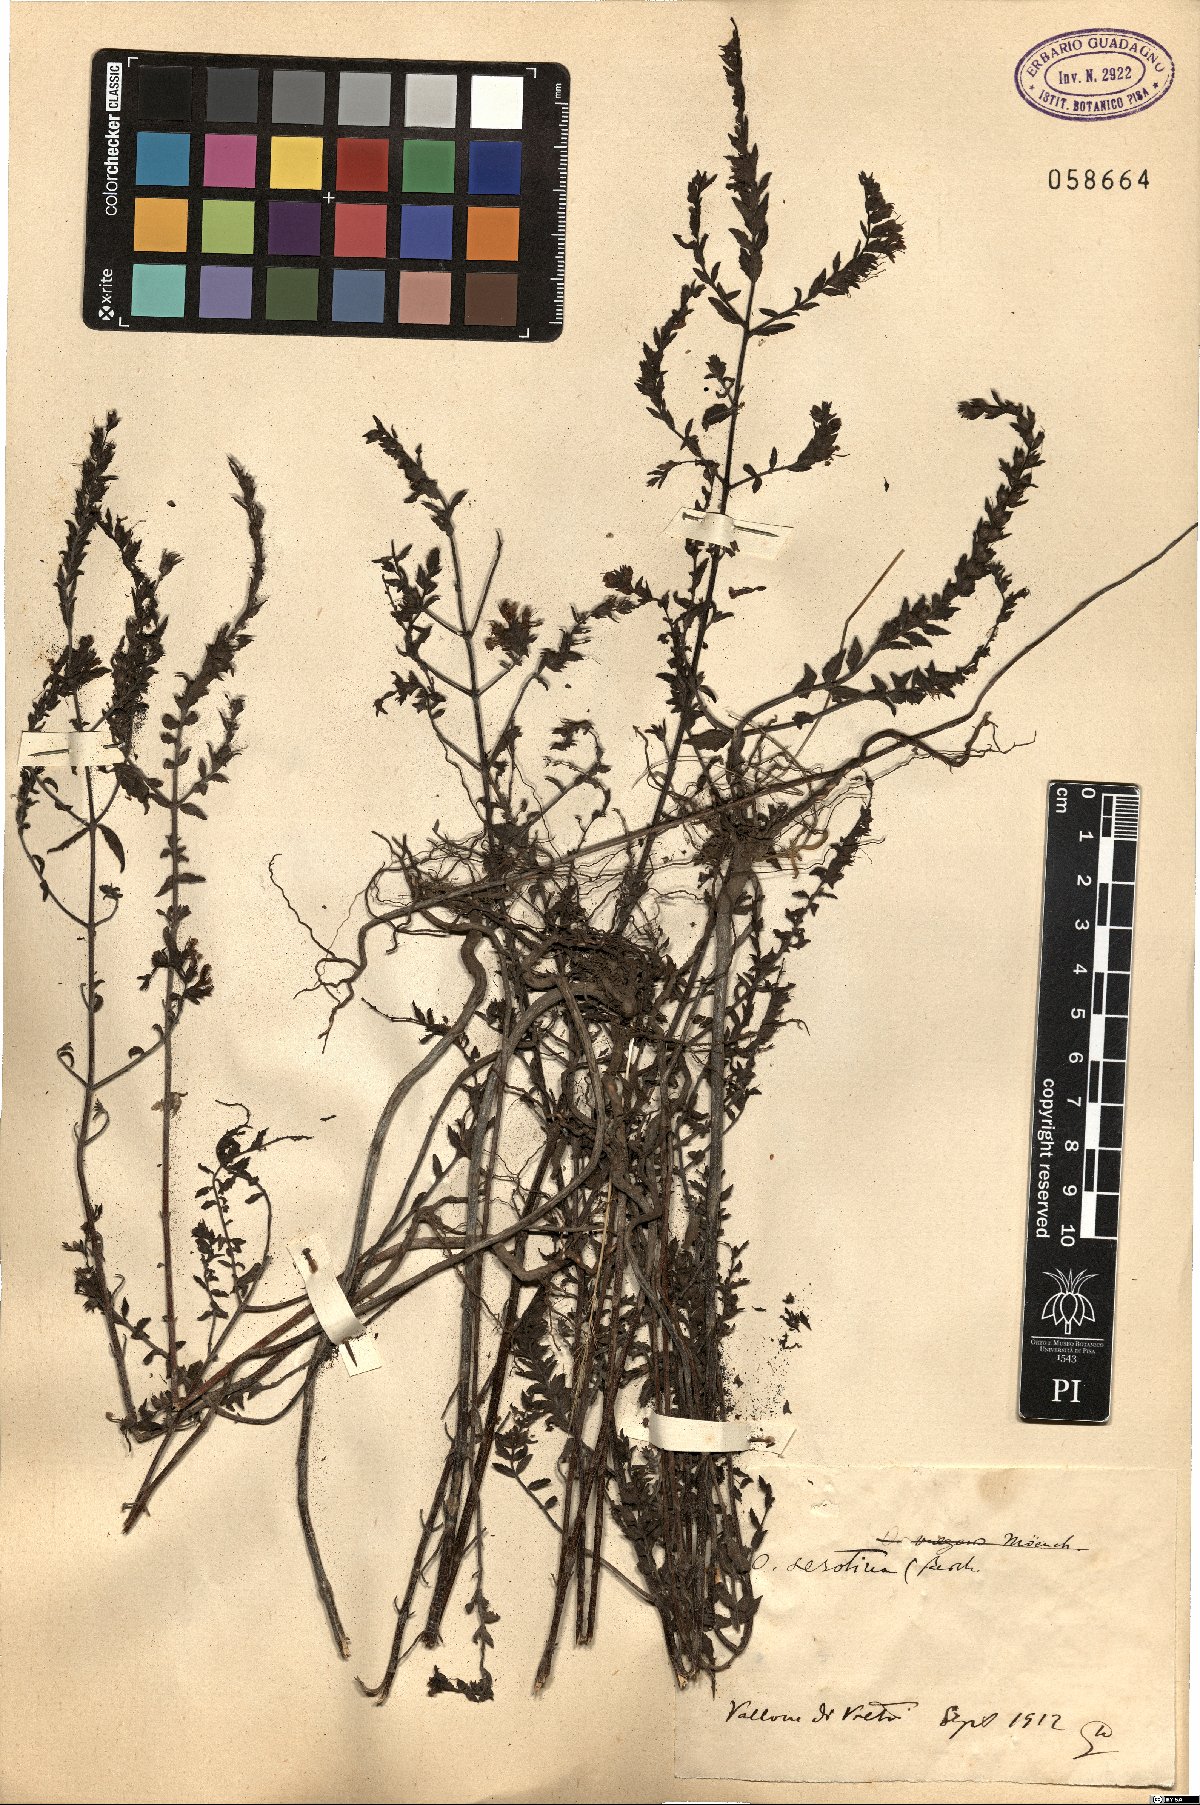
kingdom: Plantae
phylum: Tracheophyta
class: Magnoliopsida
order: Lamiales
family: Orobanchaceae
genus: Odontites
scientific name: Odontites vulgaris
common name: Broomrape
